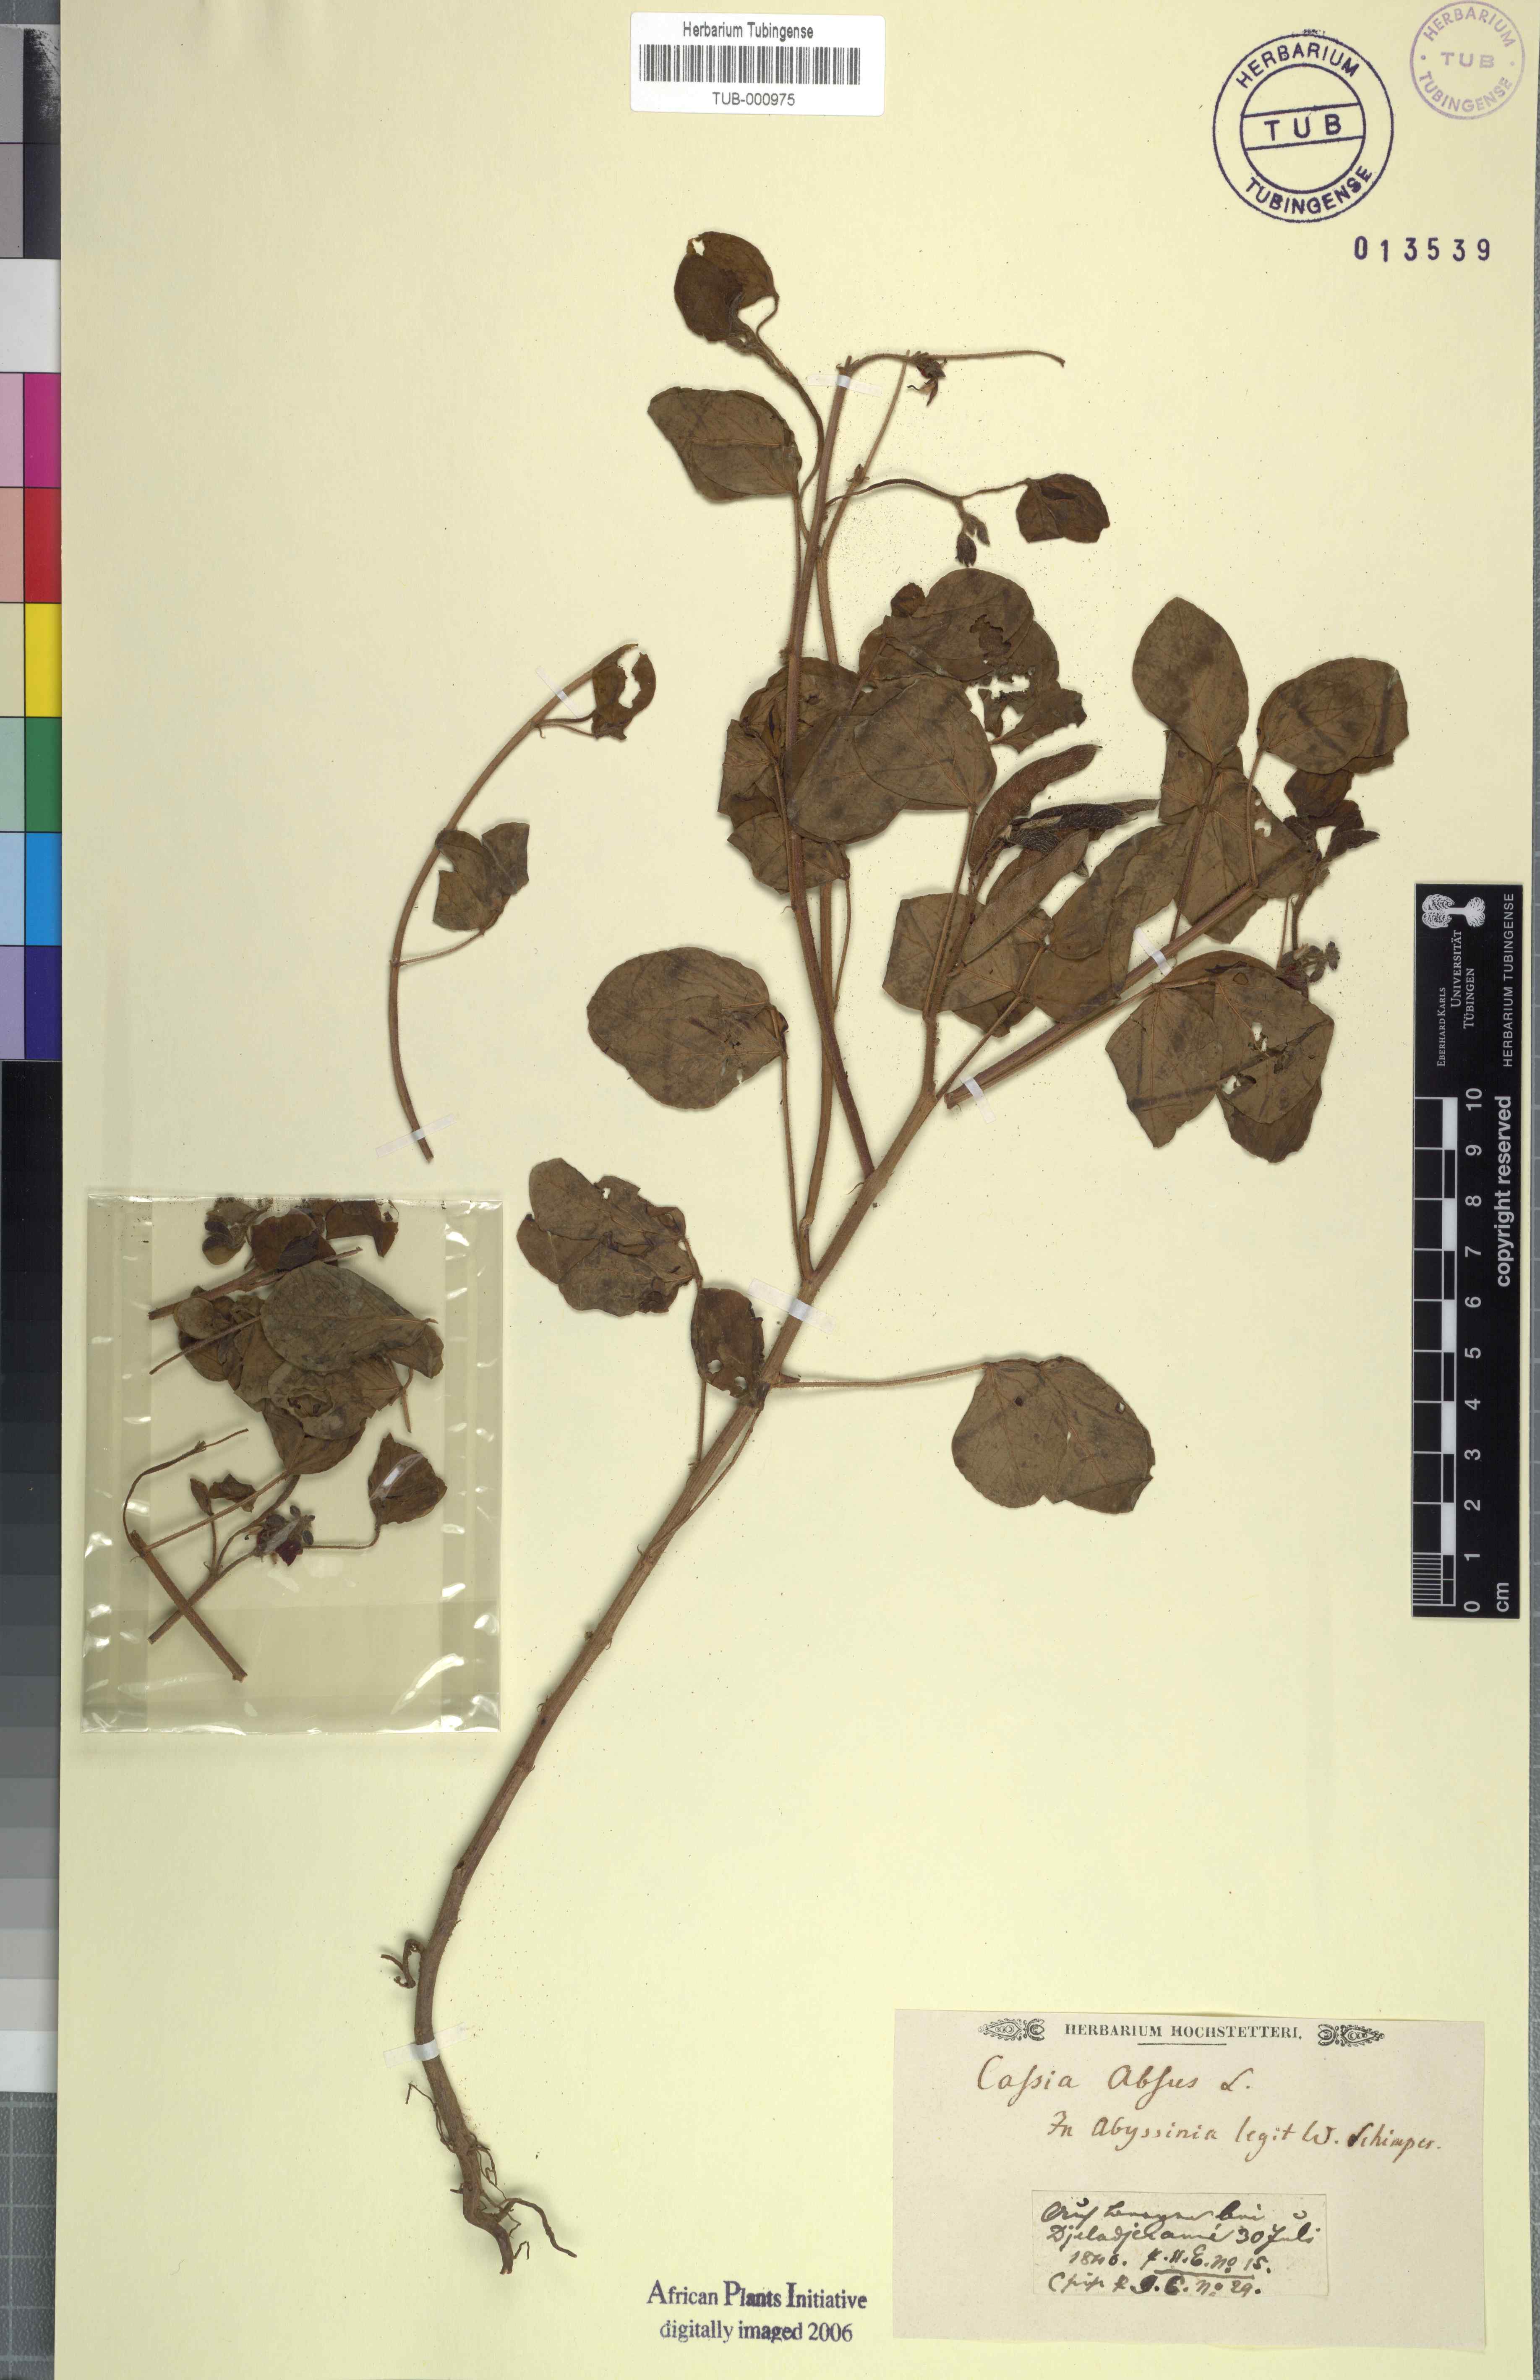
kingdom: Plantae
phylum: Tracheophyta
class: Magnoliopsida
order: Fabales
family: Fabaceae
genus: Chamaecrista
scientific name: Chamaecrista absus
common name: Tropical sensitive pea
